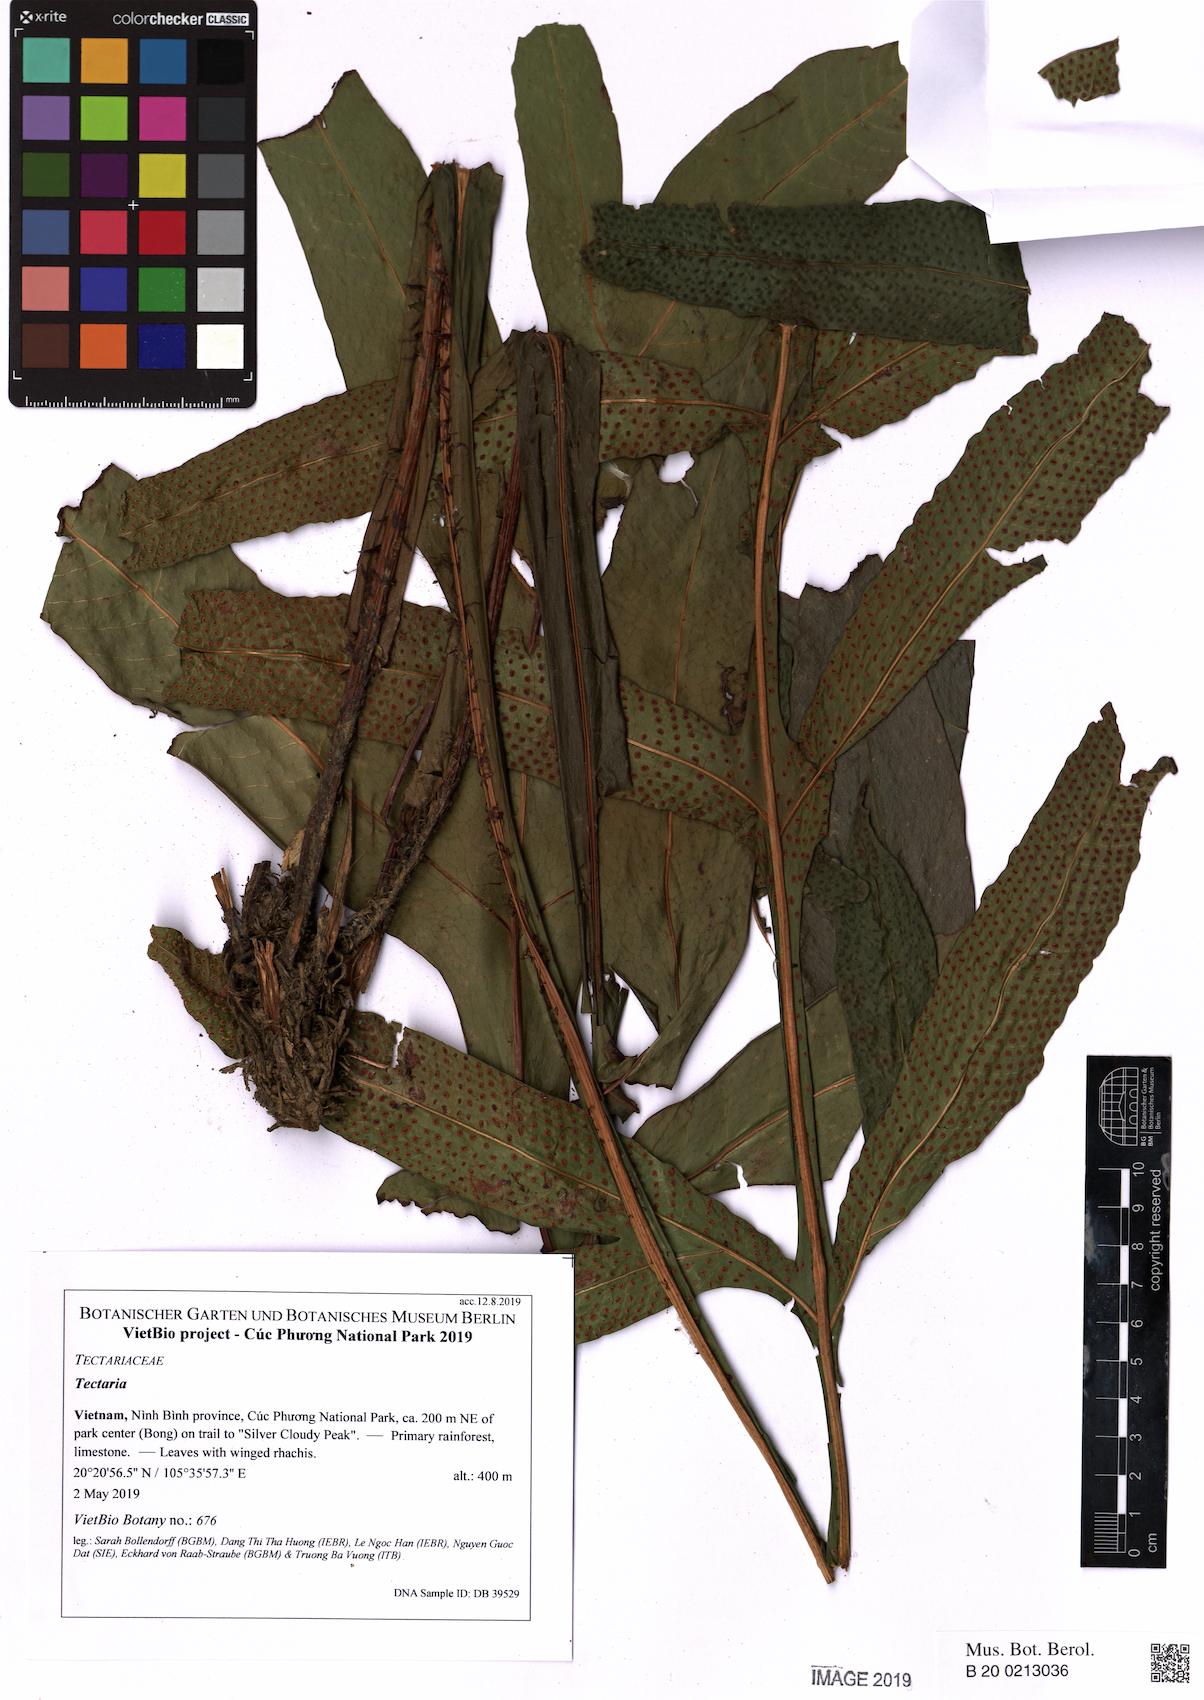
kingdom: Plantae
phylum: Tracheophyta
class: Polypodiopsida
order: Polypodiales
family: Tectariaceae
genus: Tectaria
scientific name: Tectaria decurrens
